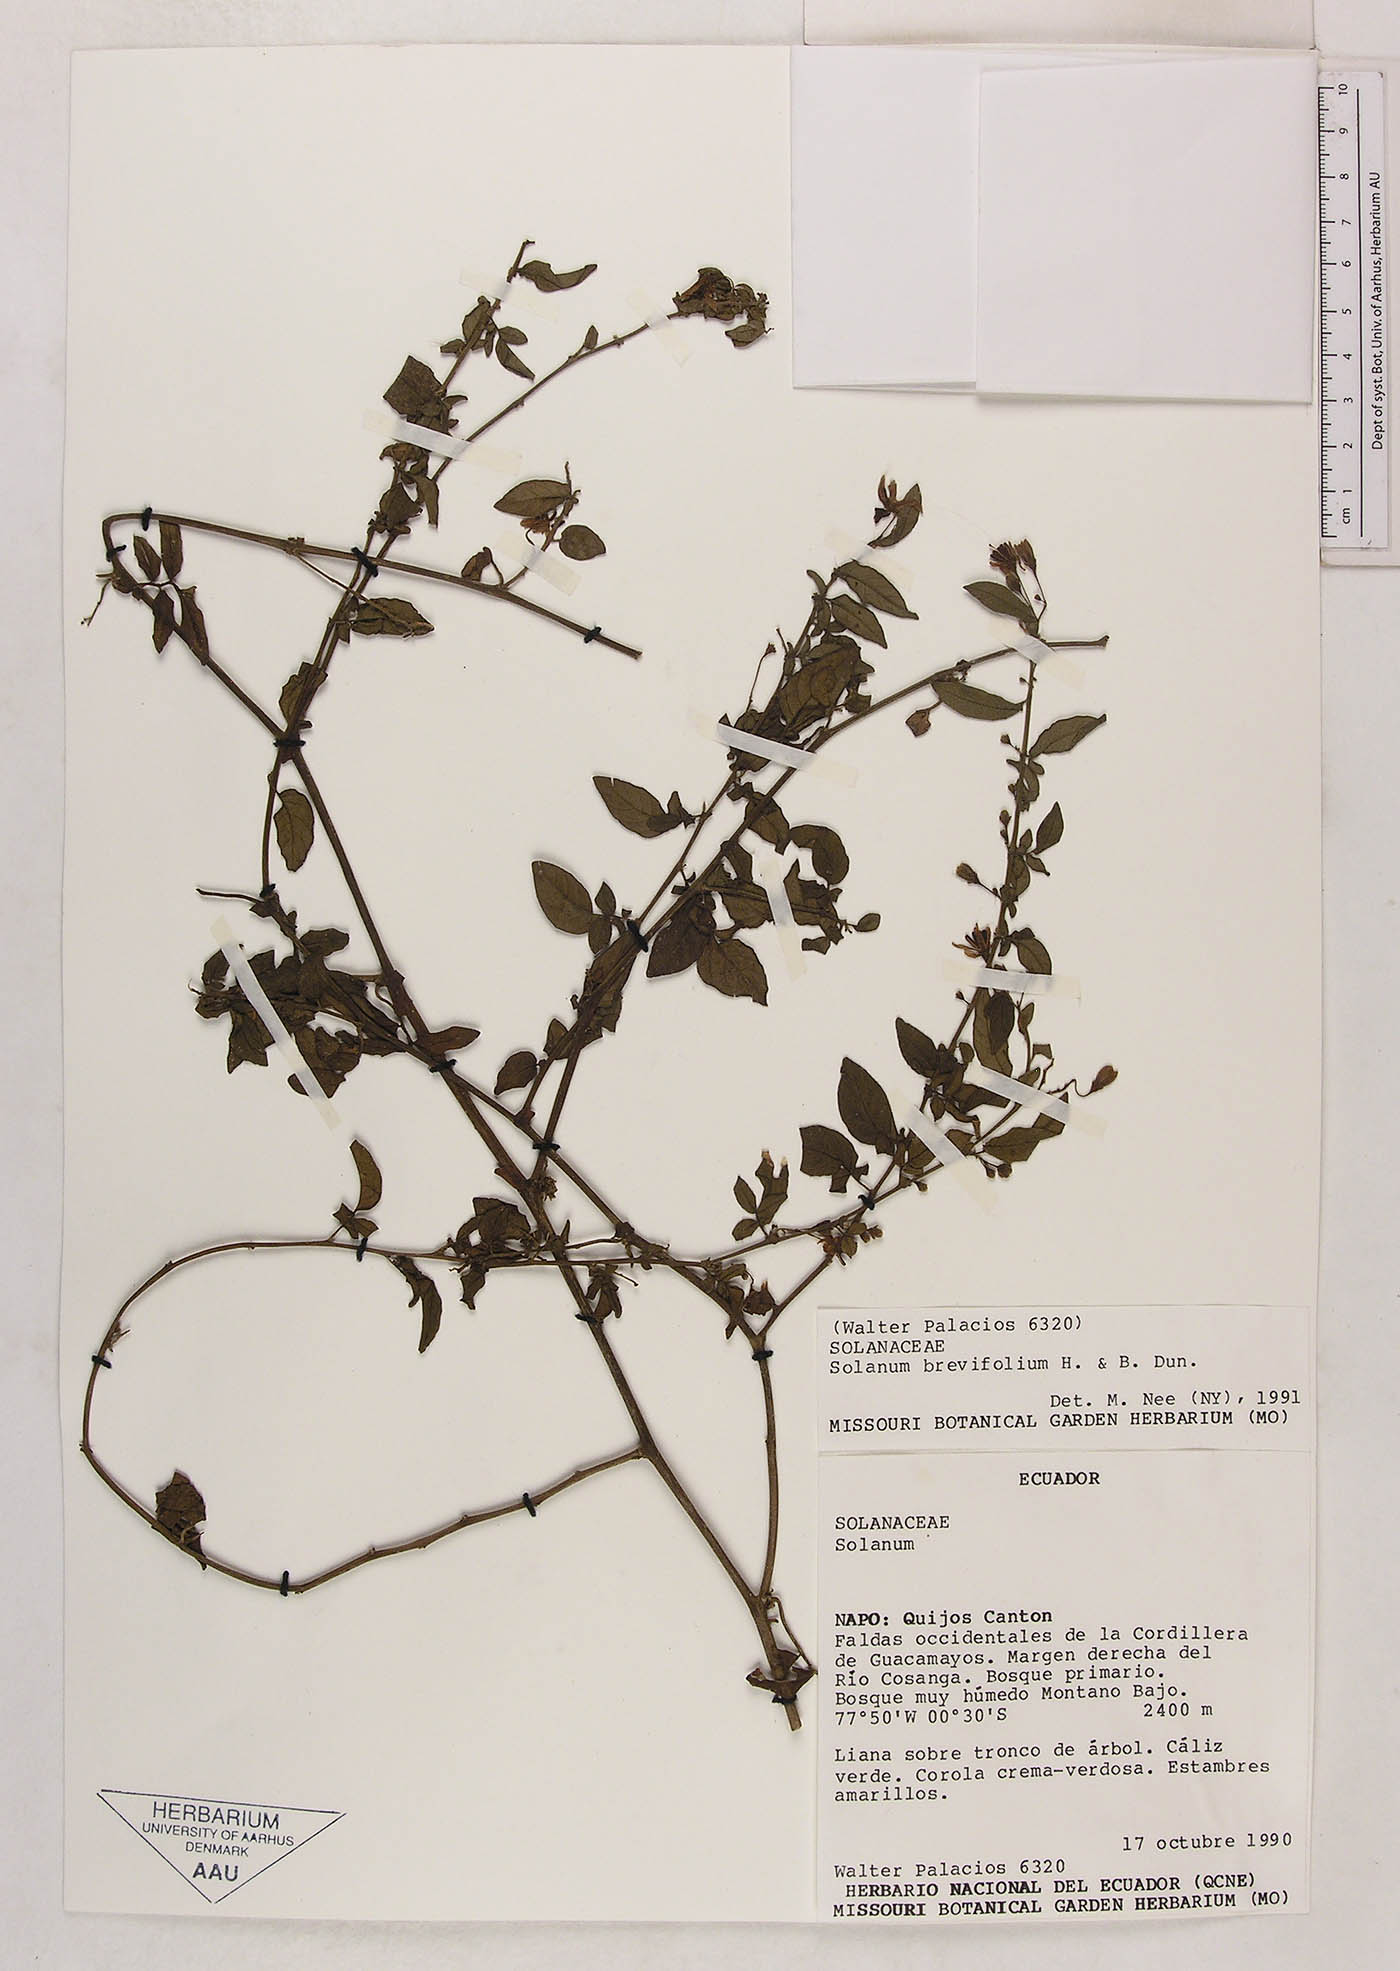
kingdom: Plantae
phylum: Tracheophyta
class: Magnoliopsida
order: Solanales
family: Solanaceae
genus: Solanum
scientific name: Solanum brevifolium
